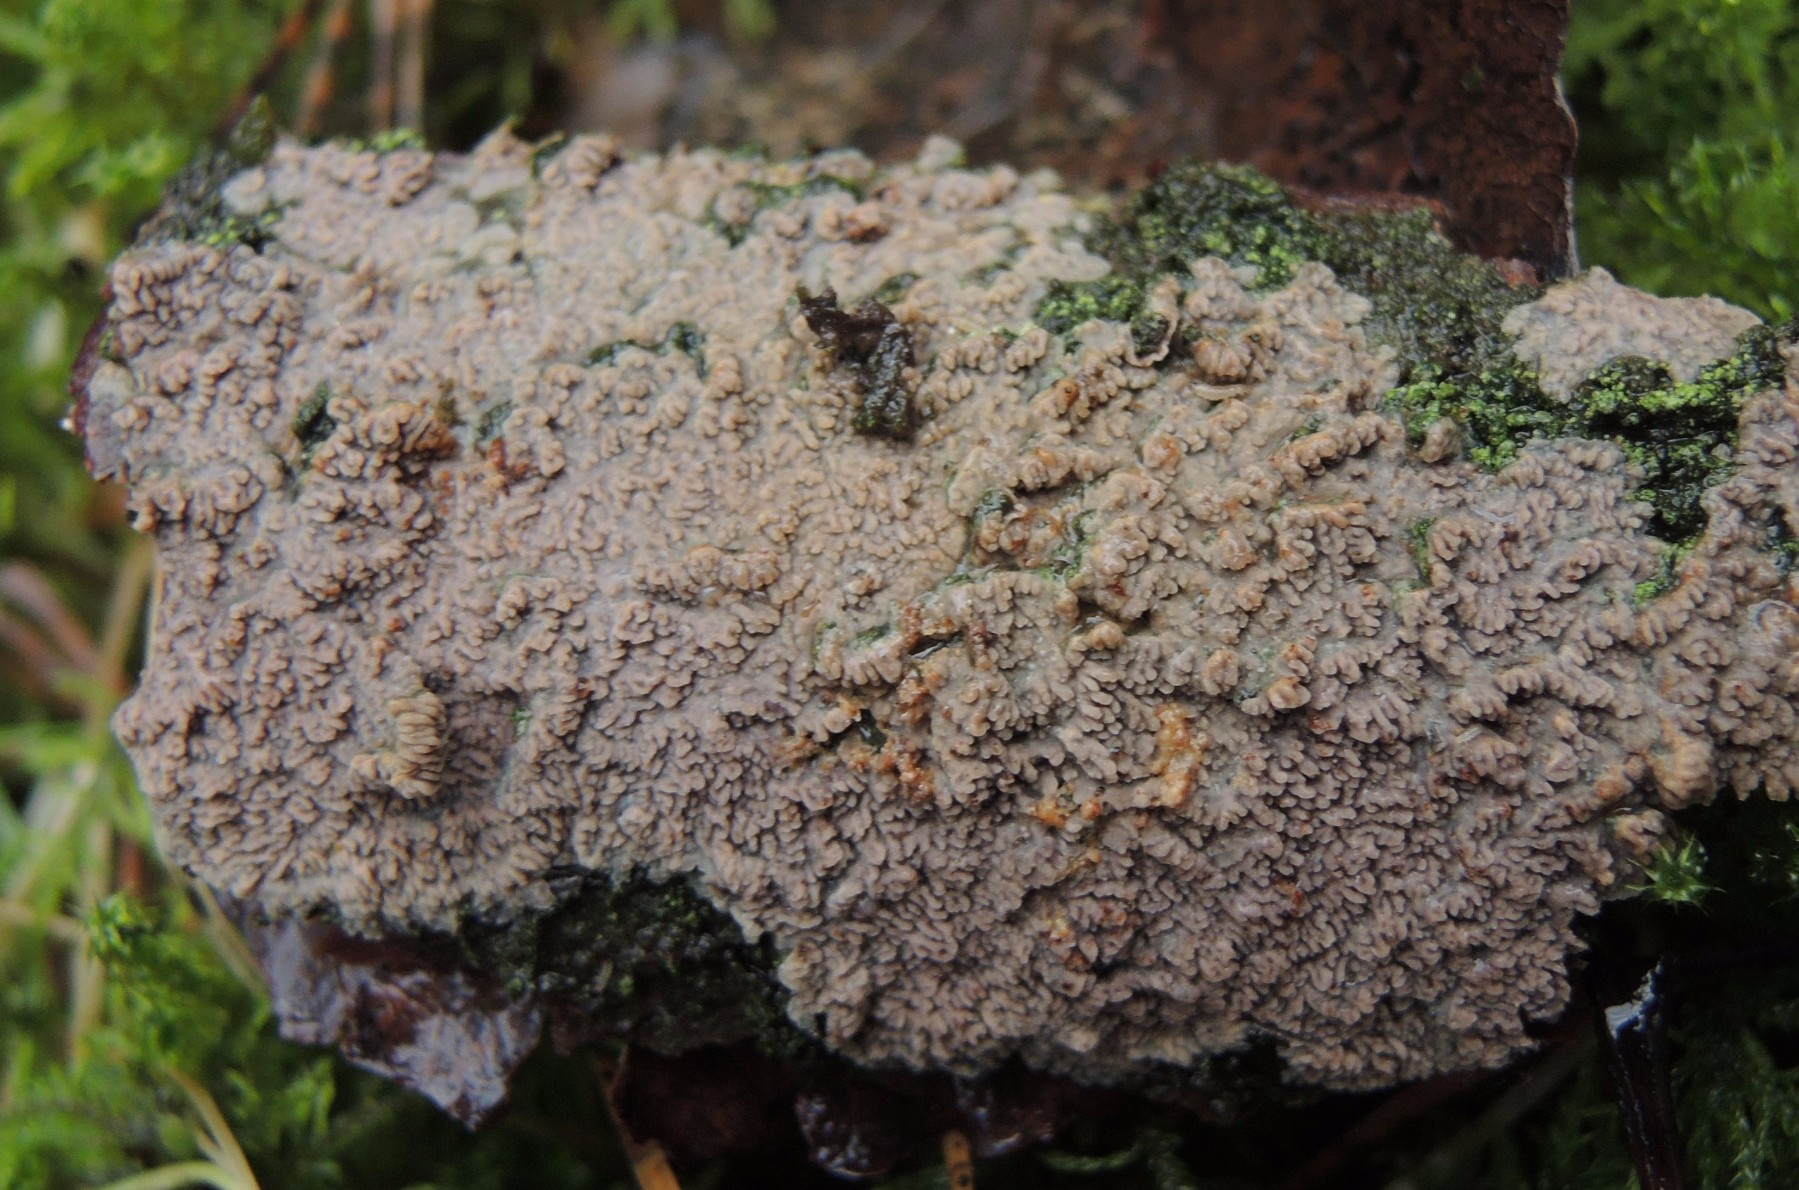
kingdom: Fungi
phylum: Basidiomycota
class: Agaricomycetes
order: Polyporales
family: Meruliaceae
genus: Phlebia
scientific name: Phlebia radiata
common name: stråle-åresvamp
